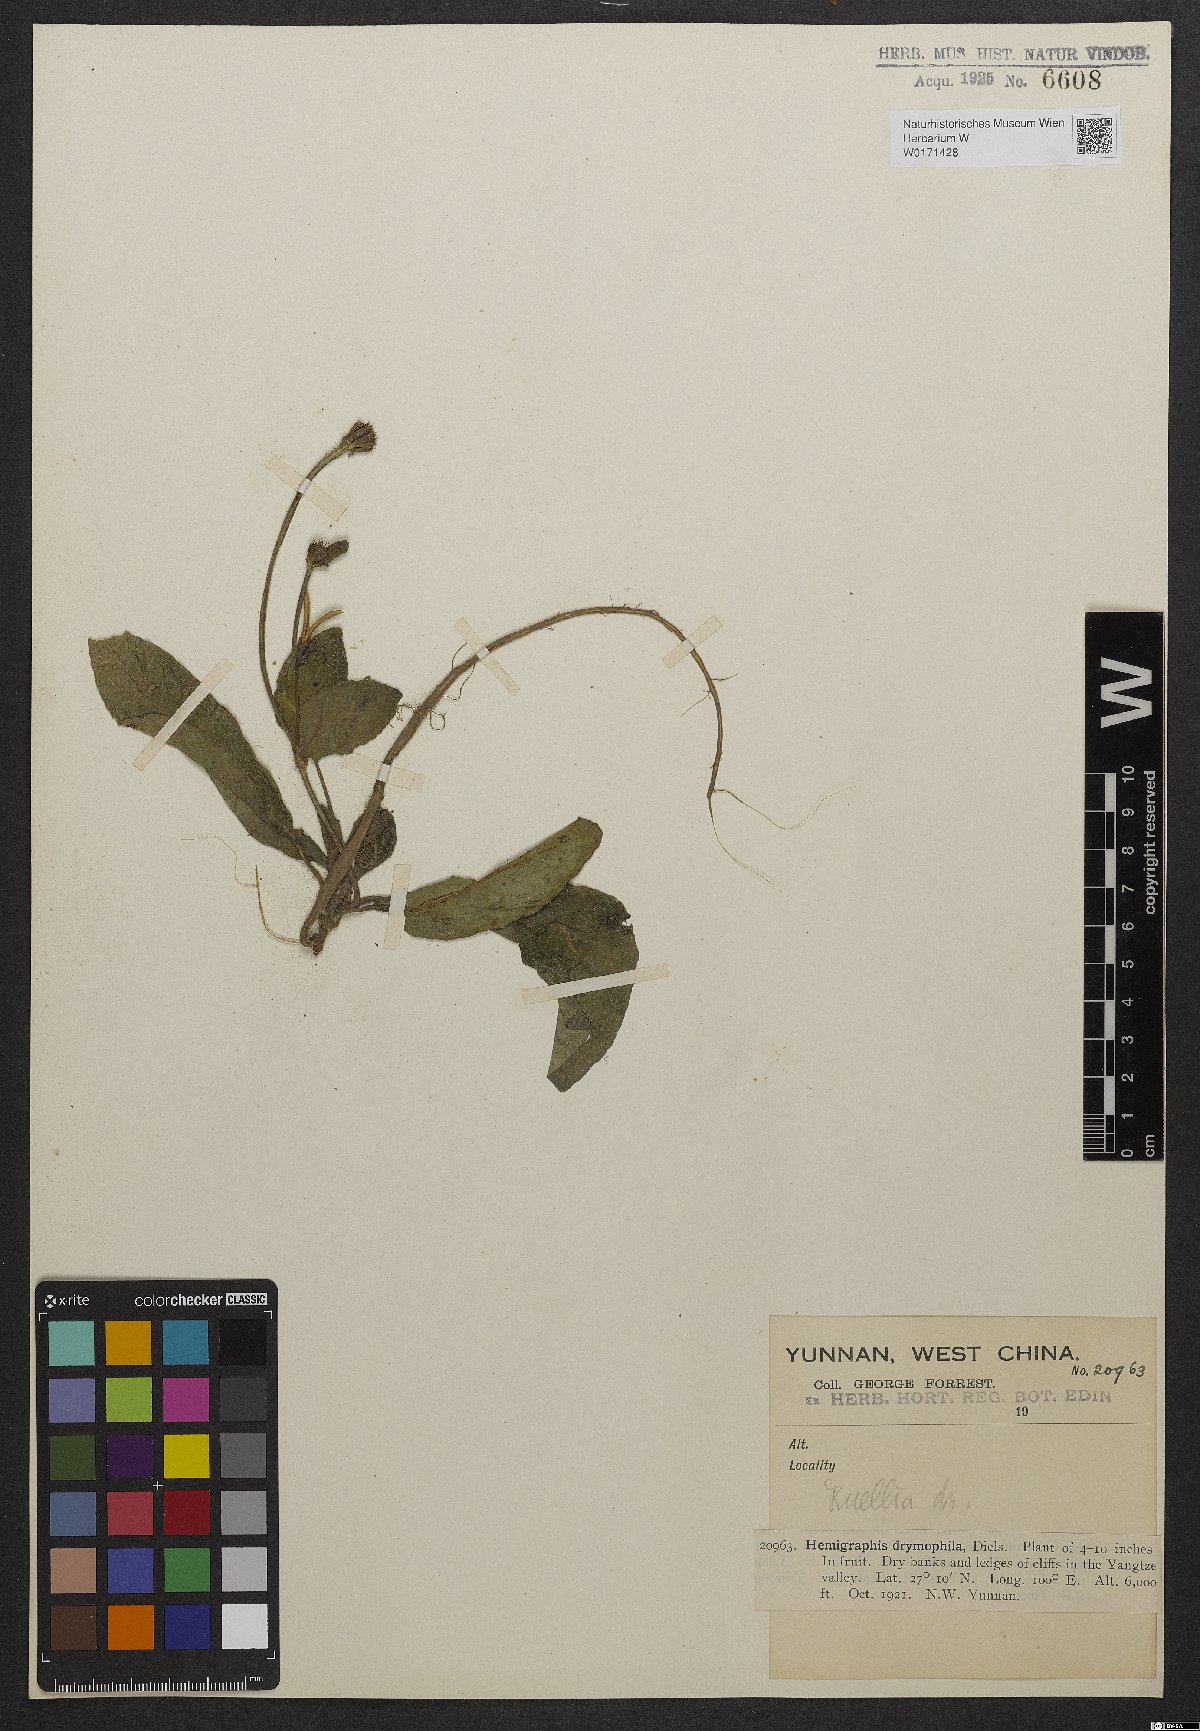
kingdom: Plantae
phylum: Tracheophyta
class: Magnoliopsida
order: Lamiales
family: Acanthaceae
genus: Pararuellia
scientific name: Pararuellia delavayana
